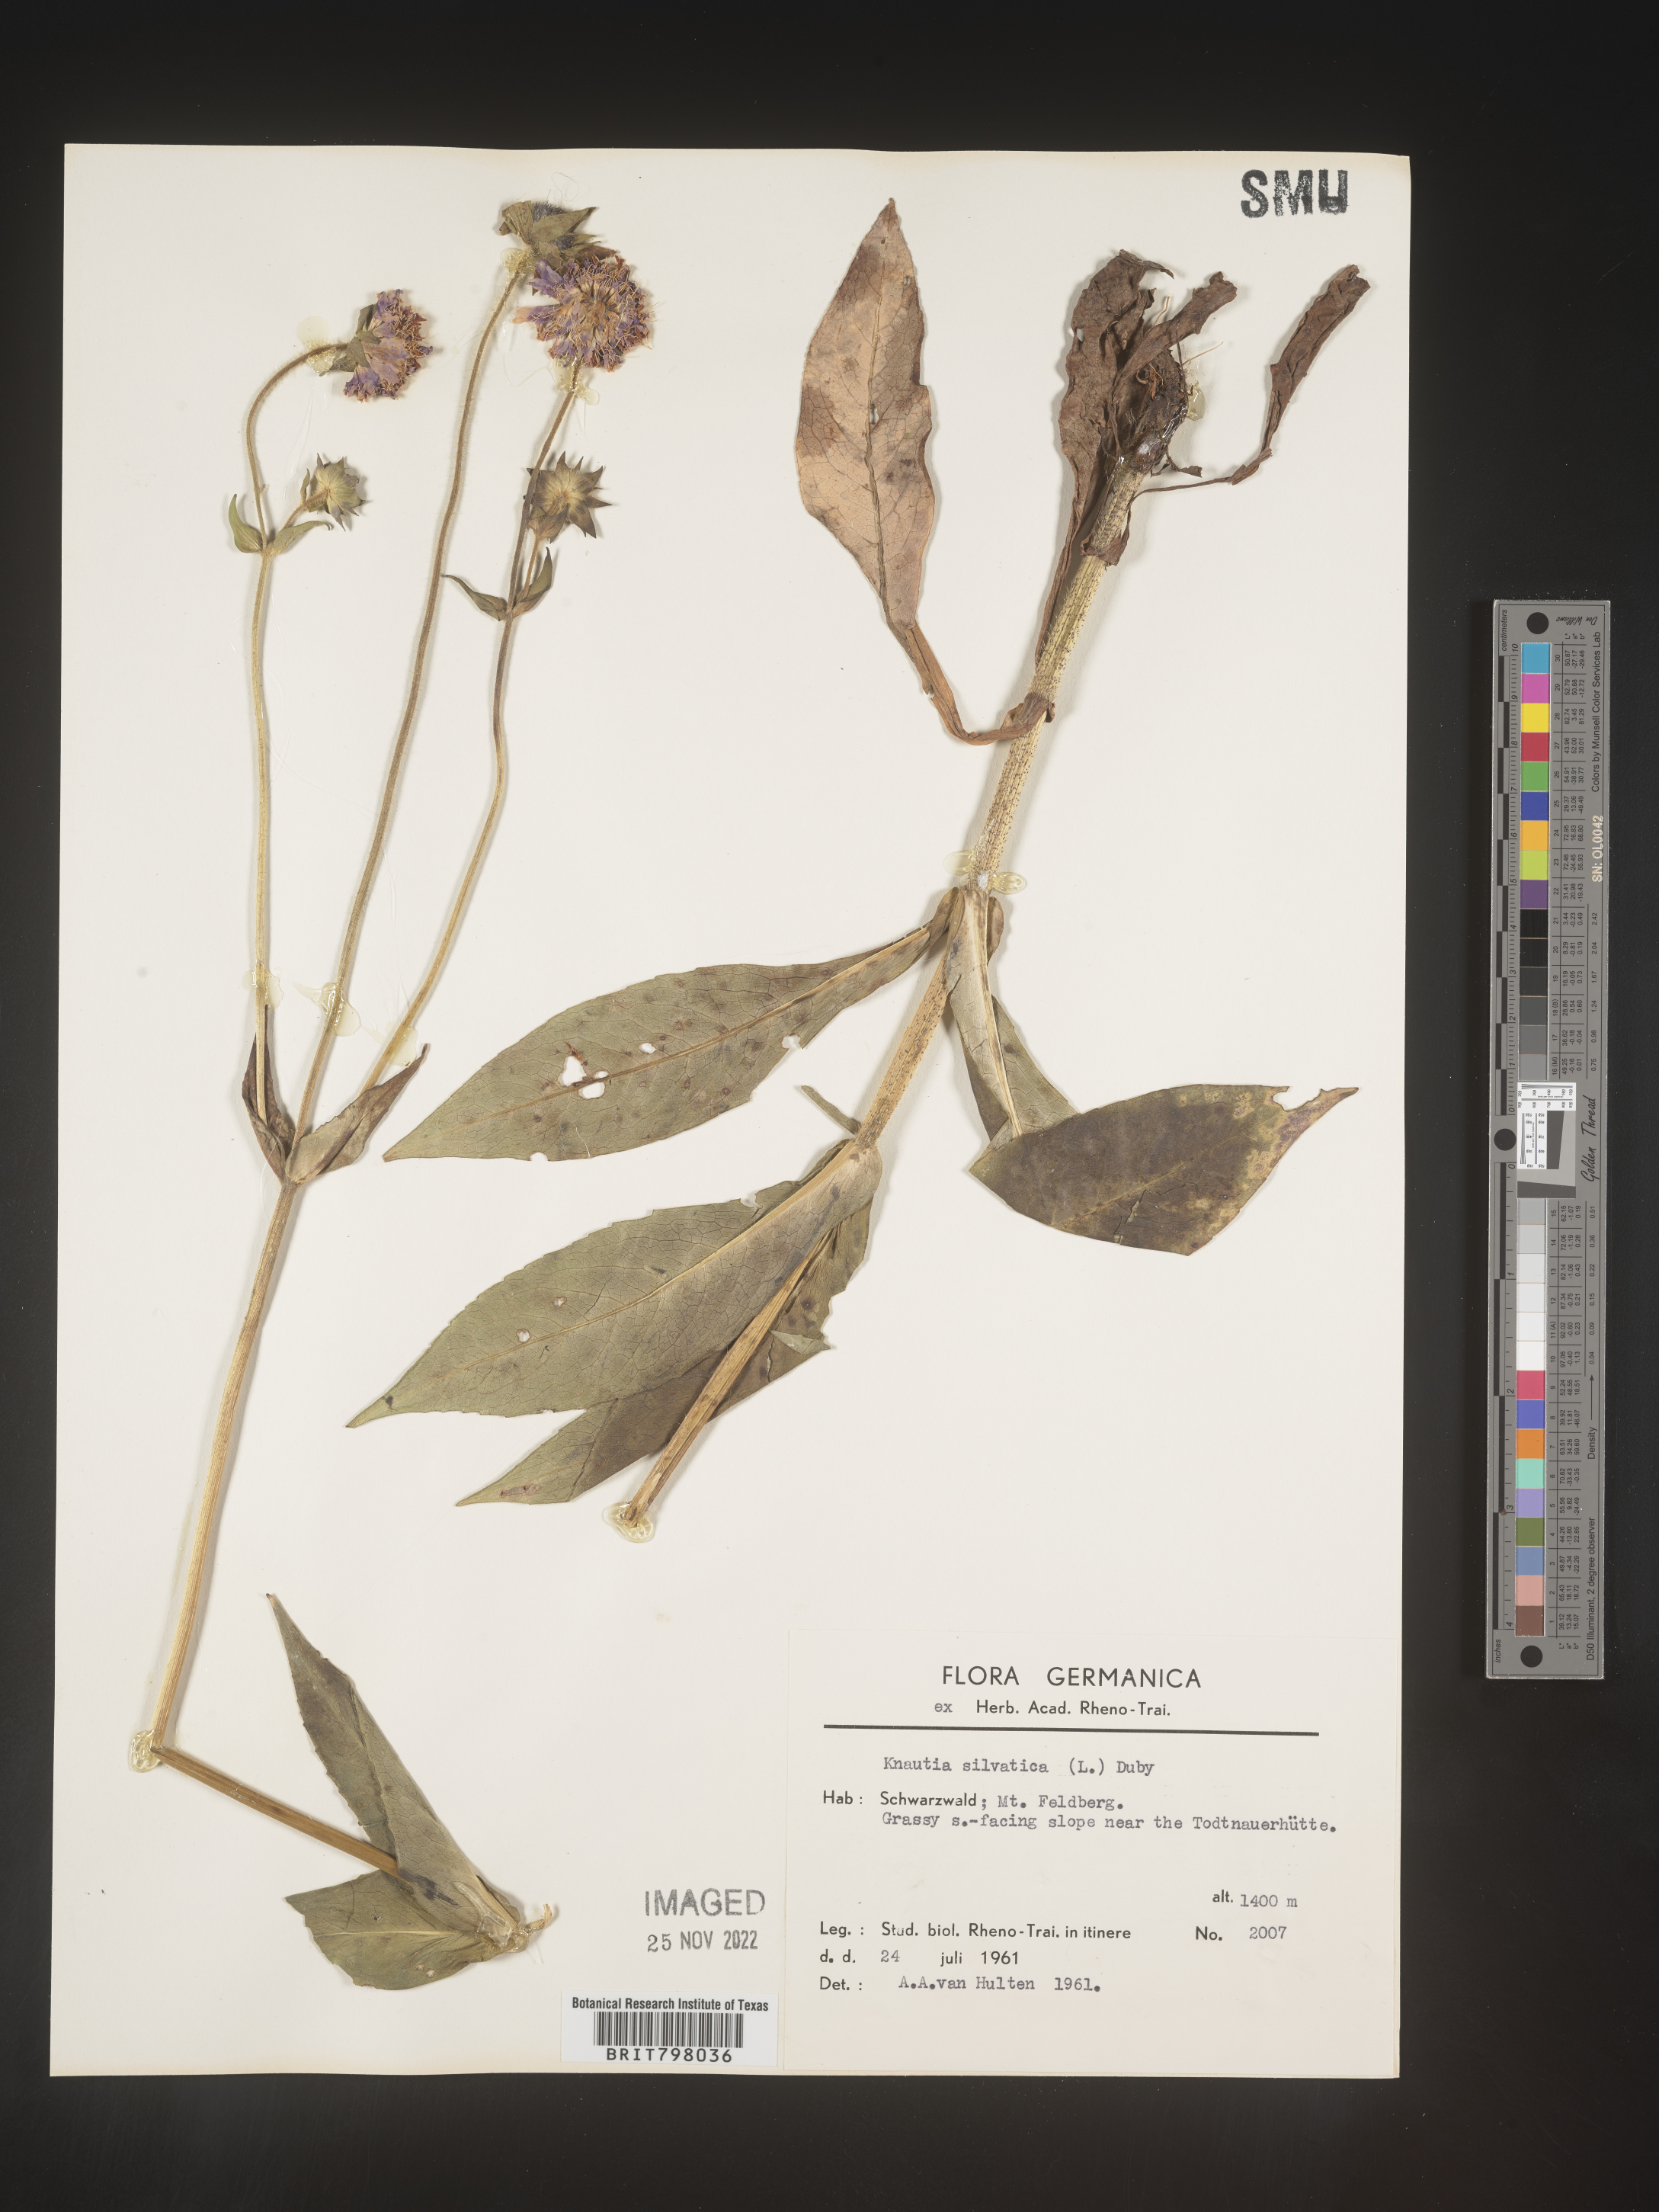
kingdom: Plantae
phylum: Tracheophyta
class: Magnoliopsida
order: Dipsacales
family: Caprifoliaceae
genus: Knautia
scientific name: Knautia
